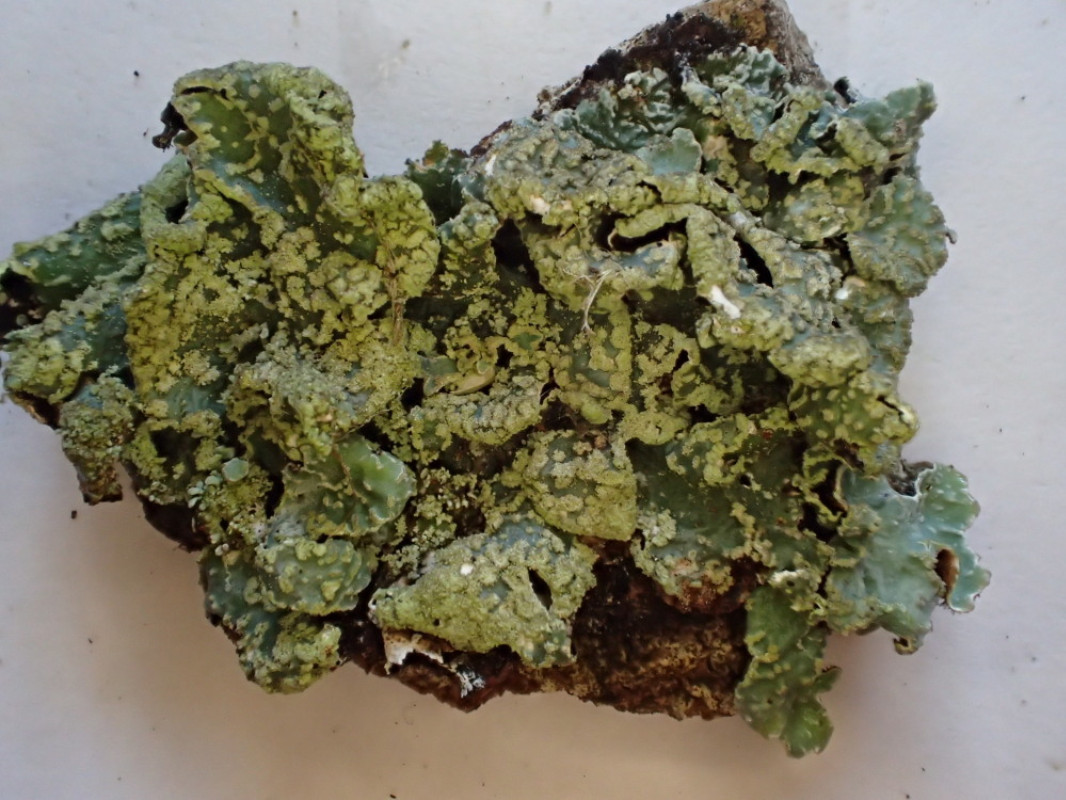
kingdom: Fungi
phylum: Ascomycota
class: Lecanoromycetes
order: Lecanorales
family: Parmeliaceae
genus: Parmelia
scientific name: Parmelia sulcata
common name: rynket skållav
